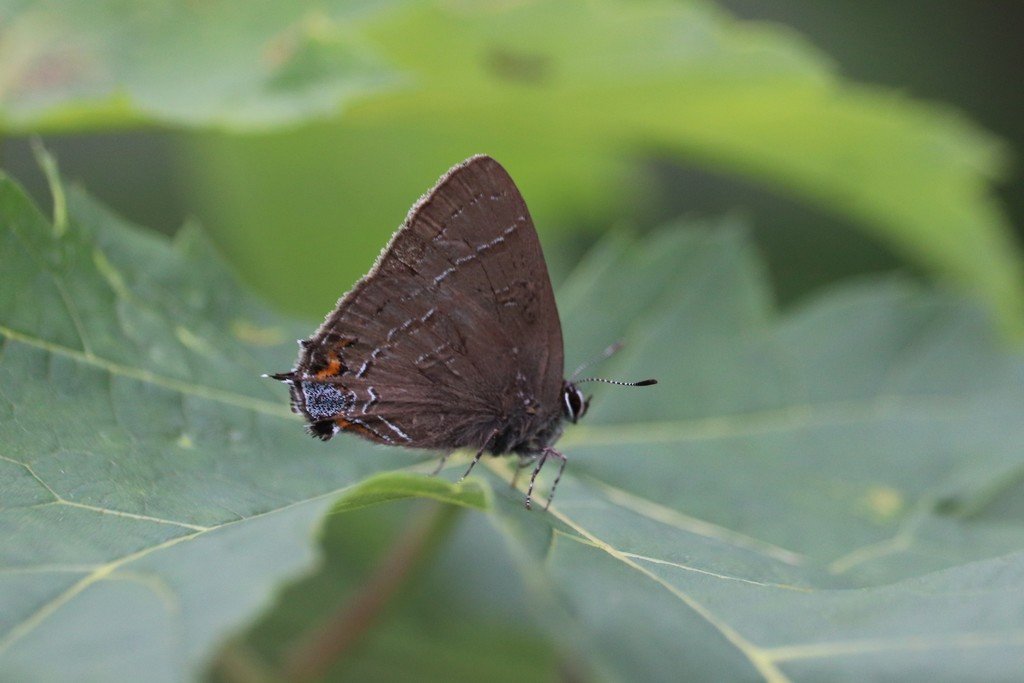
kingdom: Animalia
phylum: Arthropoda
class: Insecta
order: Lepidoptera
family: Lycaenidae
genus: Satyrium
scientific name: Satyrium calanus
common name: Banded Hairstreak
